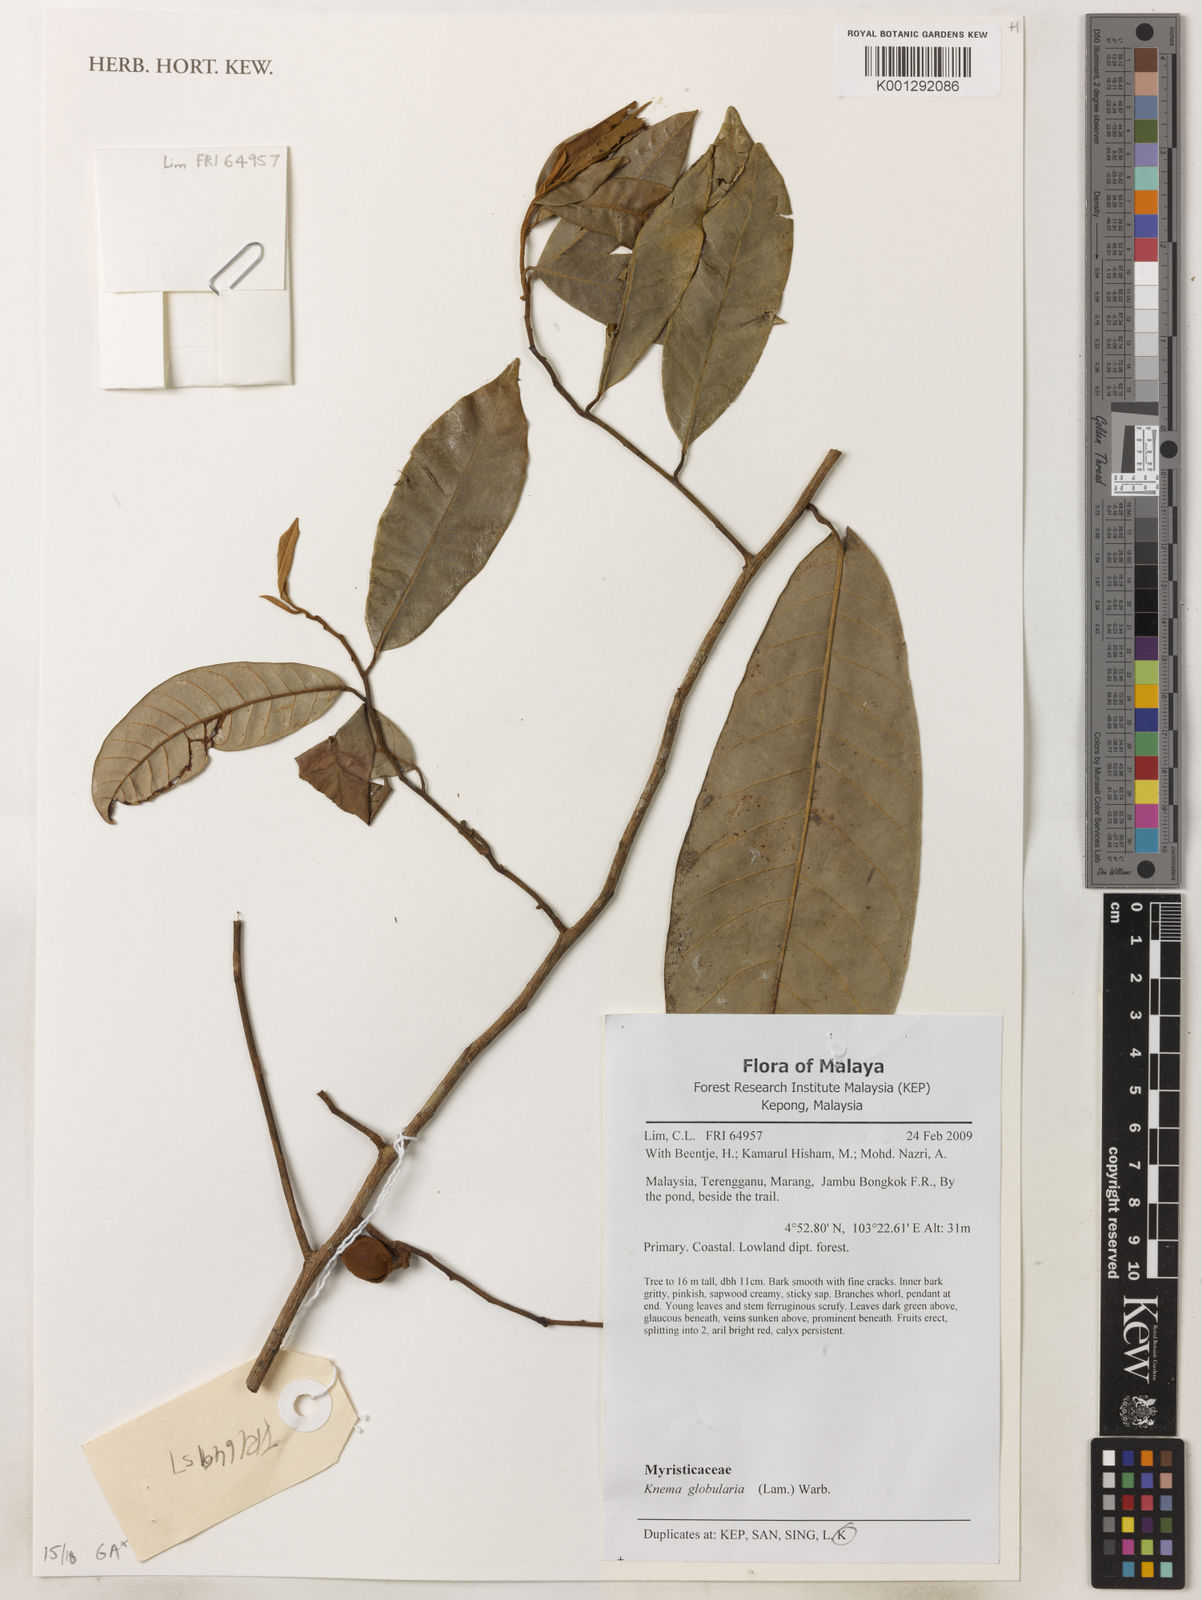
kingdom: Plantae
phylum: Tracheophyta
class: Magnoliopsida
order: Magnoliales
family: Myristicaceae
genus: Knema
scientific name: Knema globularia
